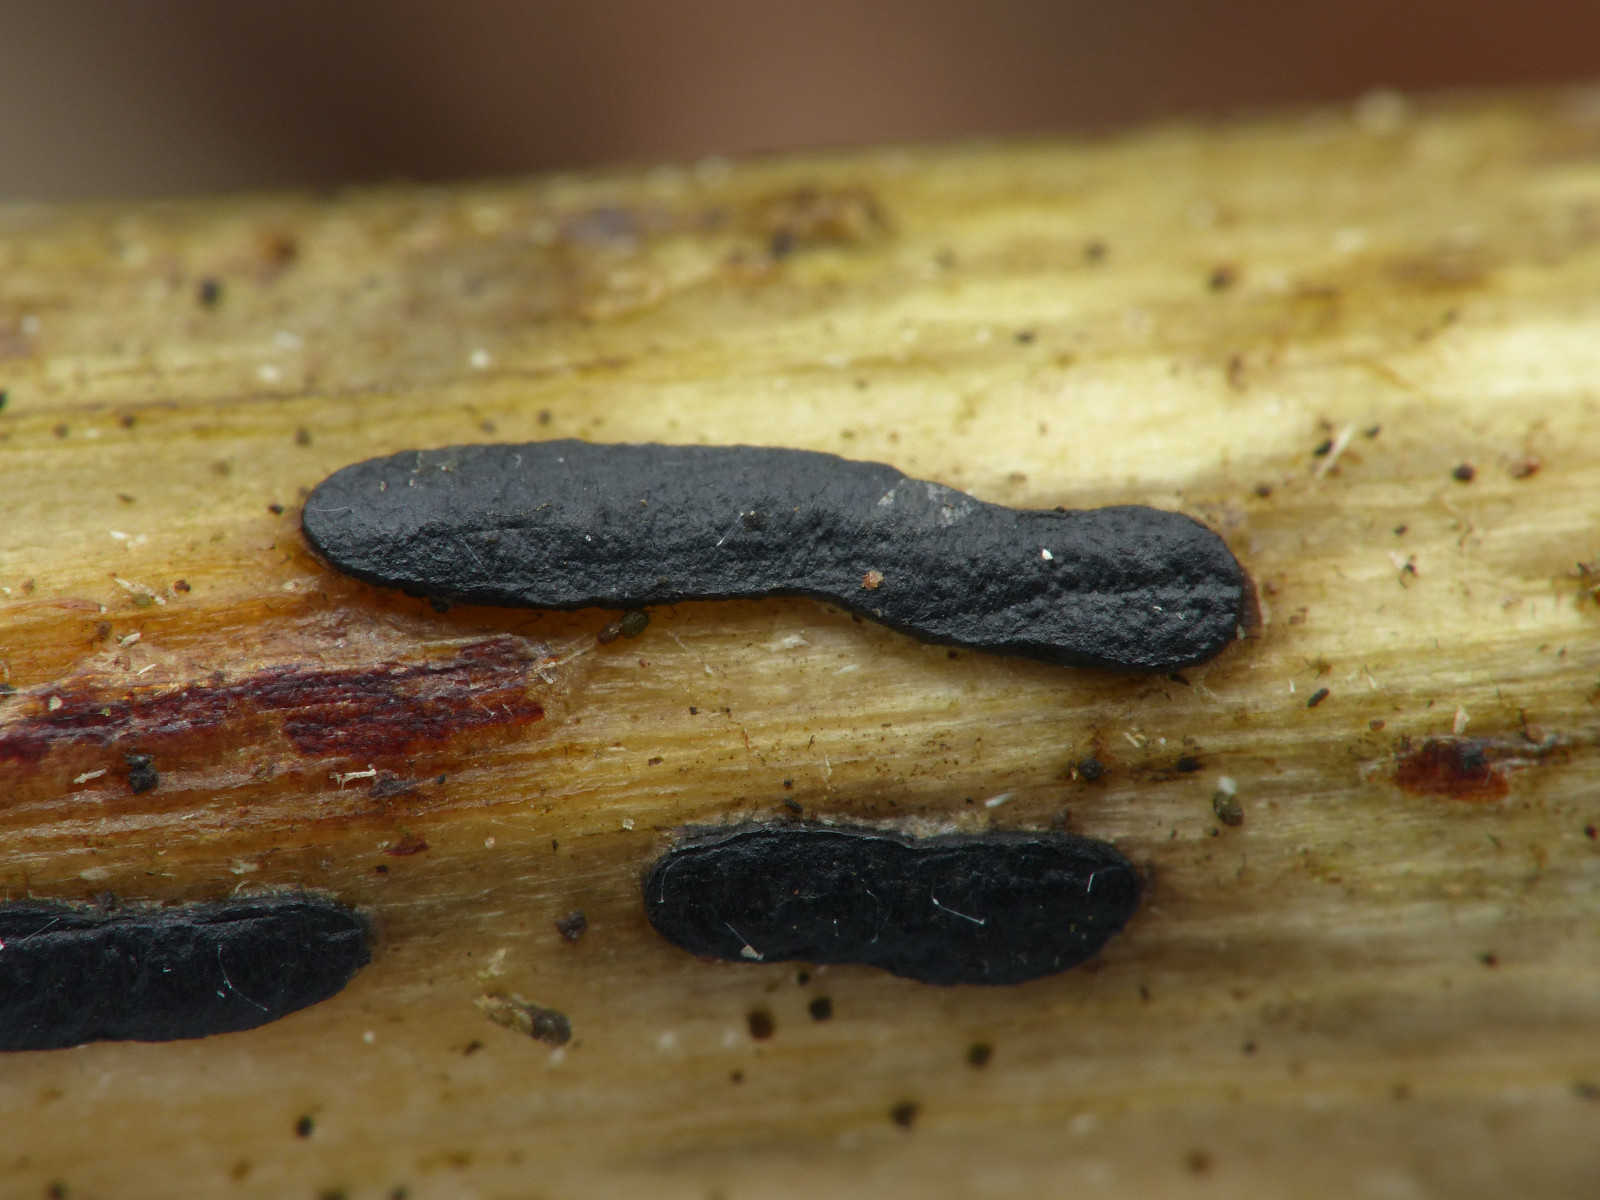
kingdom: Fungi
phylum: Basidiomycota
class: Agaricomycetes
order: Agaricales
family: Typhulaceae
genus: Sclerotium
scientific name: Sclerotium
